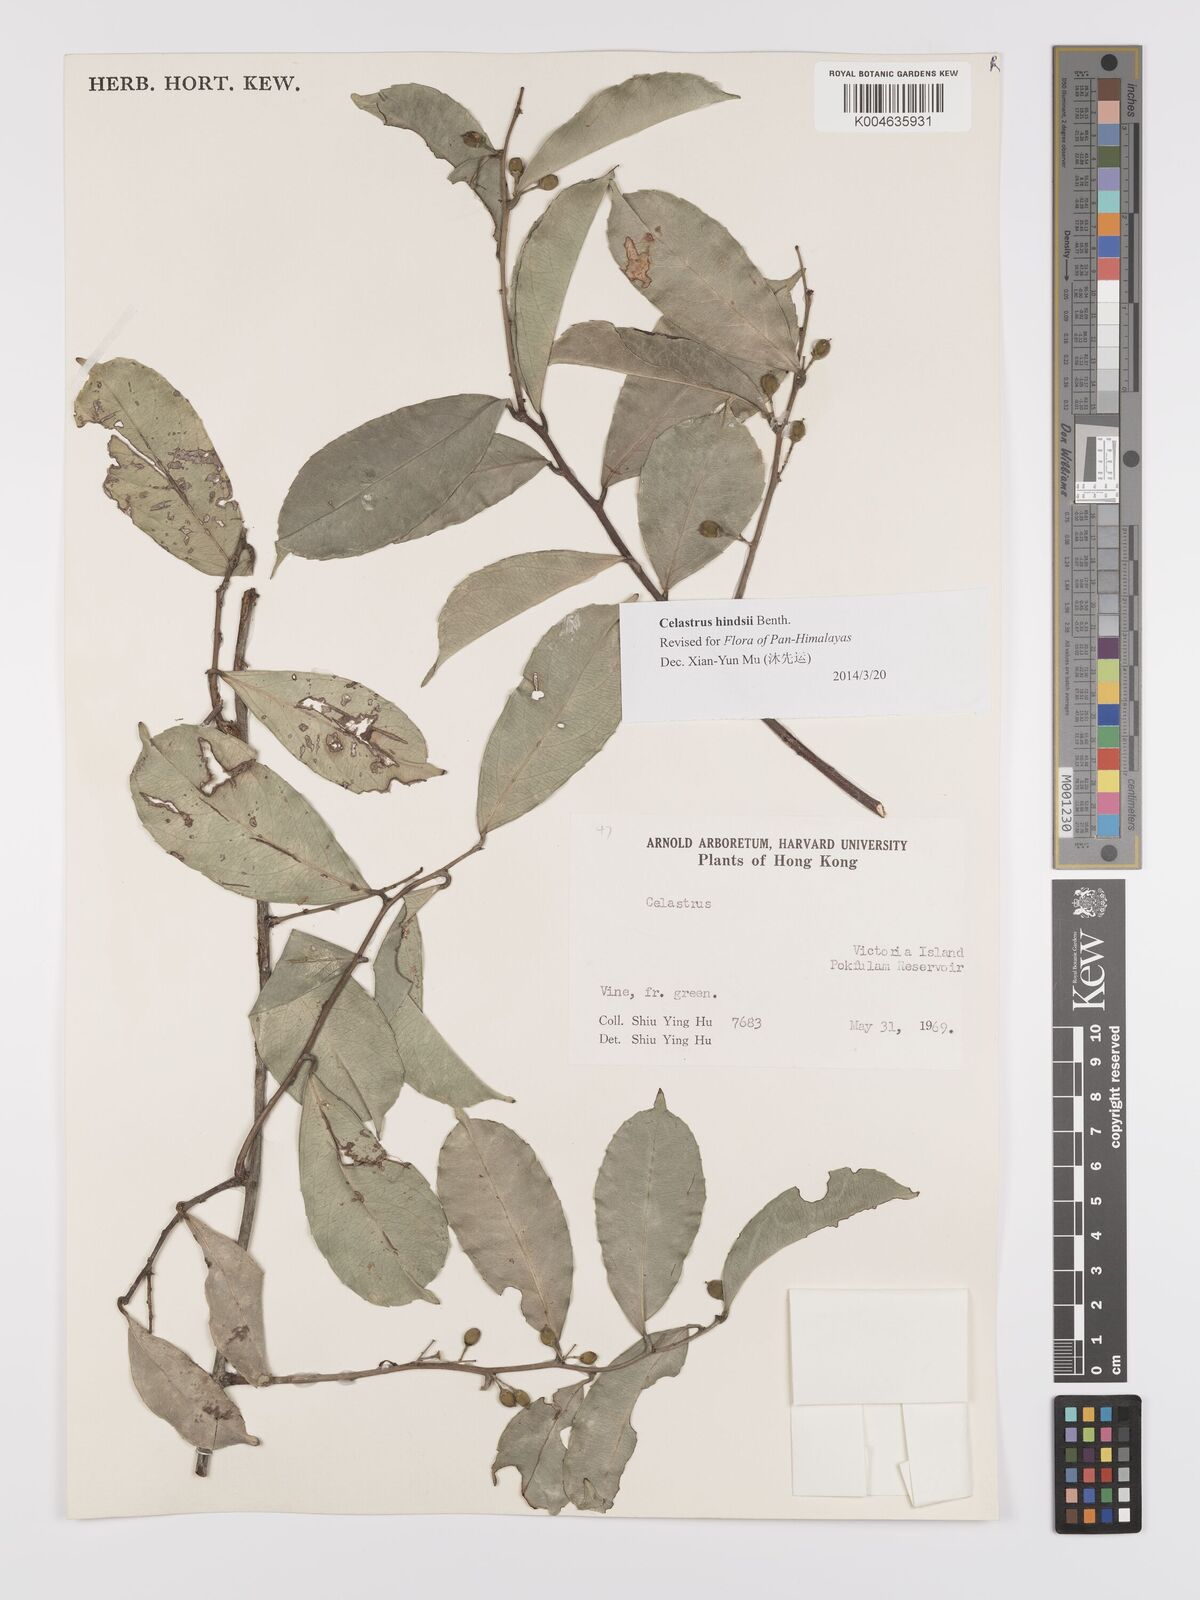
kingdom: Plantae
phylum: Tracheophyta
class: Magnoliopsida
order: Celastrales
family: Celastraceae
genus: Celastrus
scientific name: Celastrus hindsii
